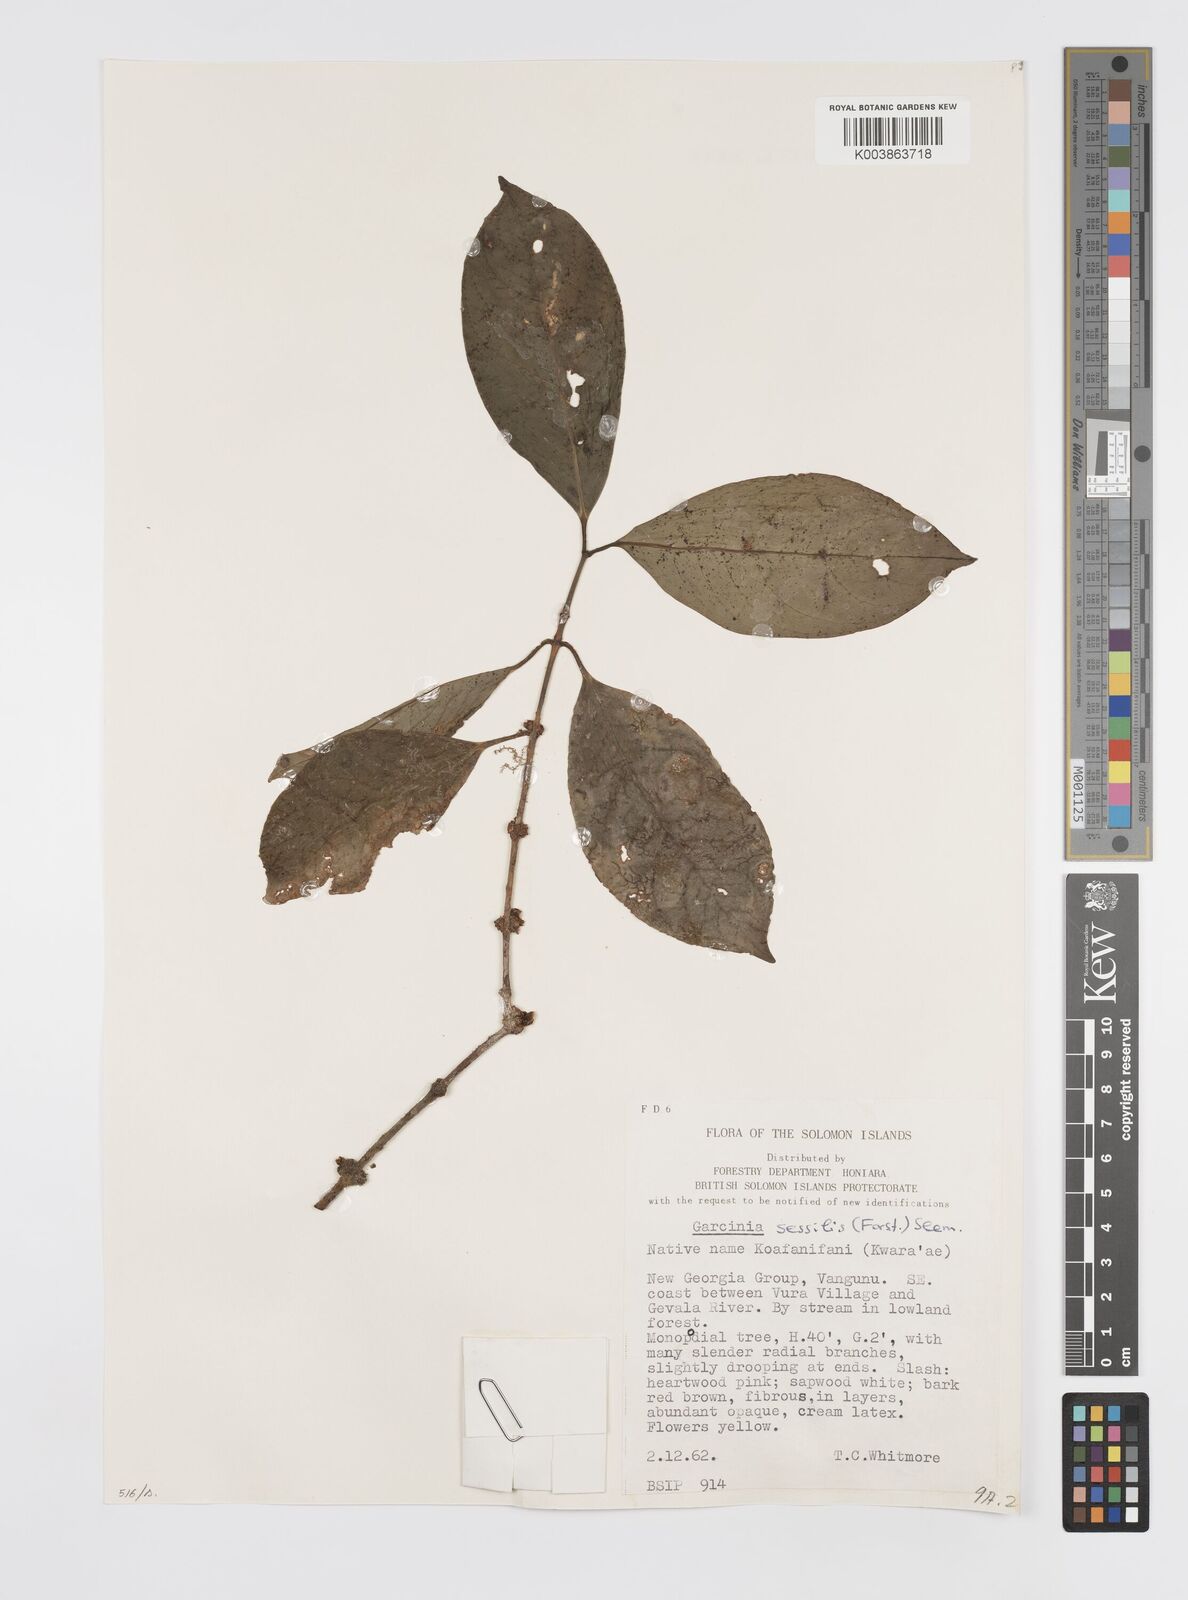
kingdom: Plantae
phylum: Tracheophyta
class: Magnoliopsida
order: Malpighiales
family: Clusiaceae
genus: Garcinia
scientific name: Garcinia sessilis
